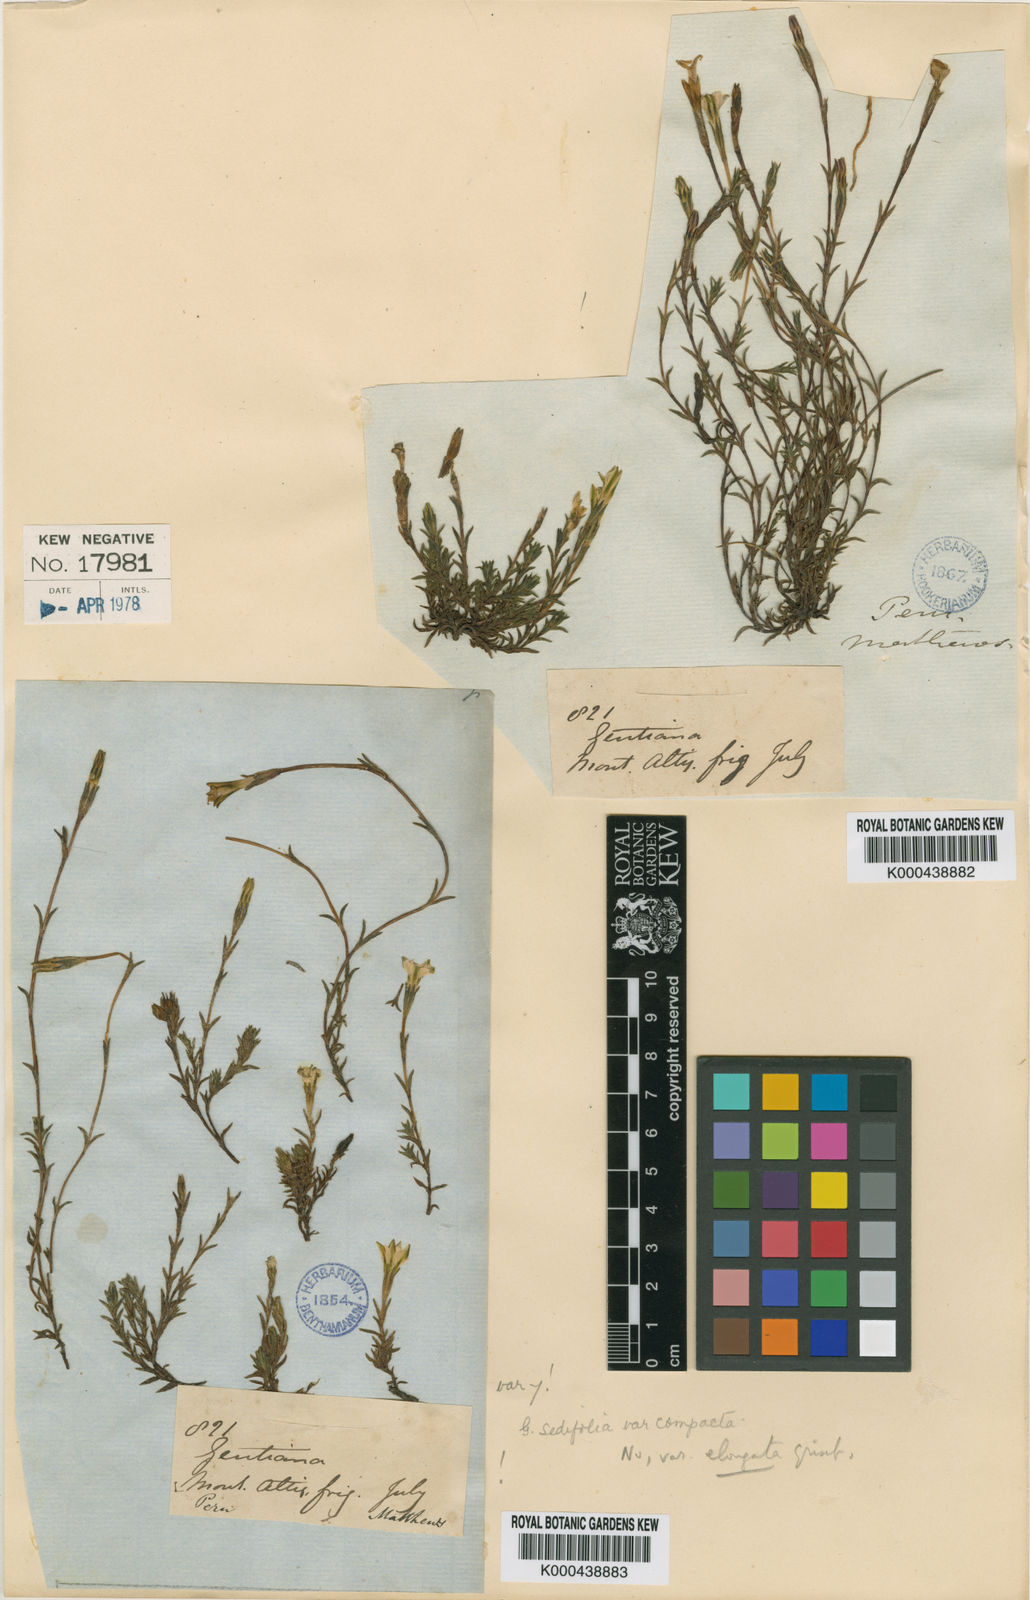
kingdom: Plantae
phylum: Tracheophyta
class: Magnoliopsida
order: Gentianales
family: Gentianaceae
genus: Gentiana
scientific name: Gentiana prostrata
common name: Moss gentian
